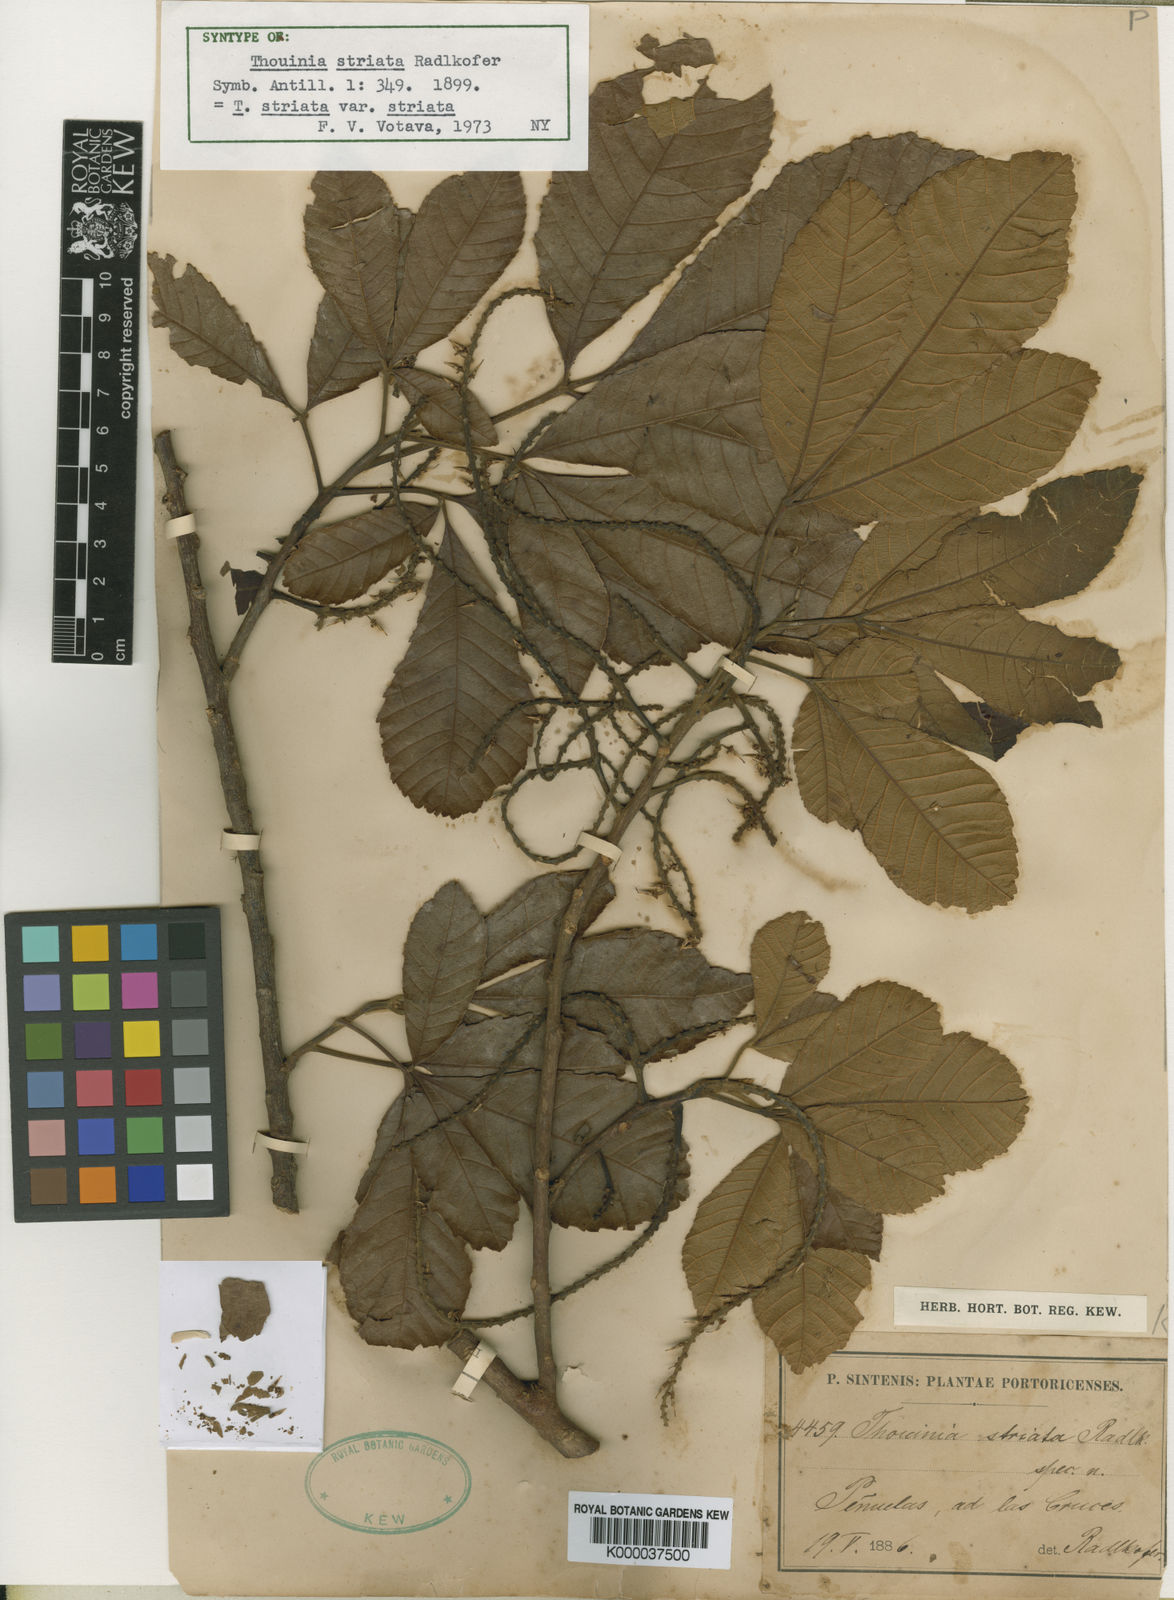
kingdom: Plantae
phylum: Tracheophyta
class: Magnoliopsida
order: Sapindales
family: Sapindaceae
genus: Thouinia
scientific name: Thouinia striata
